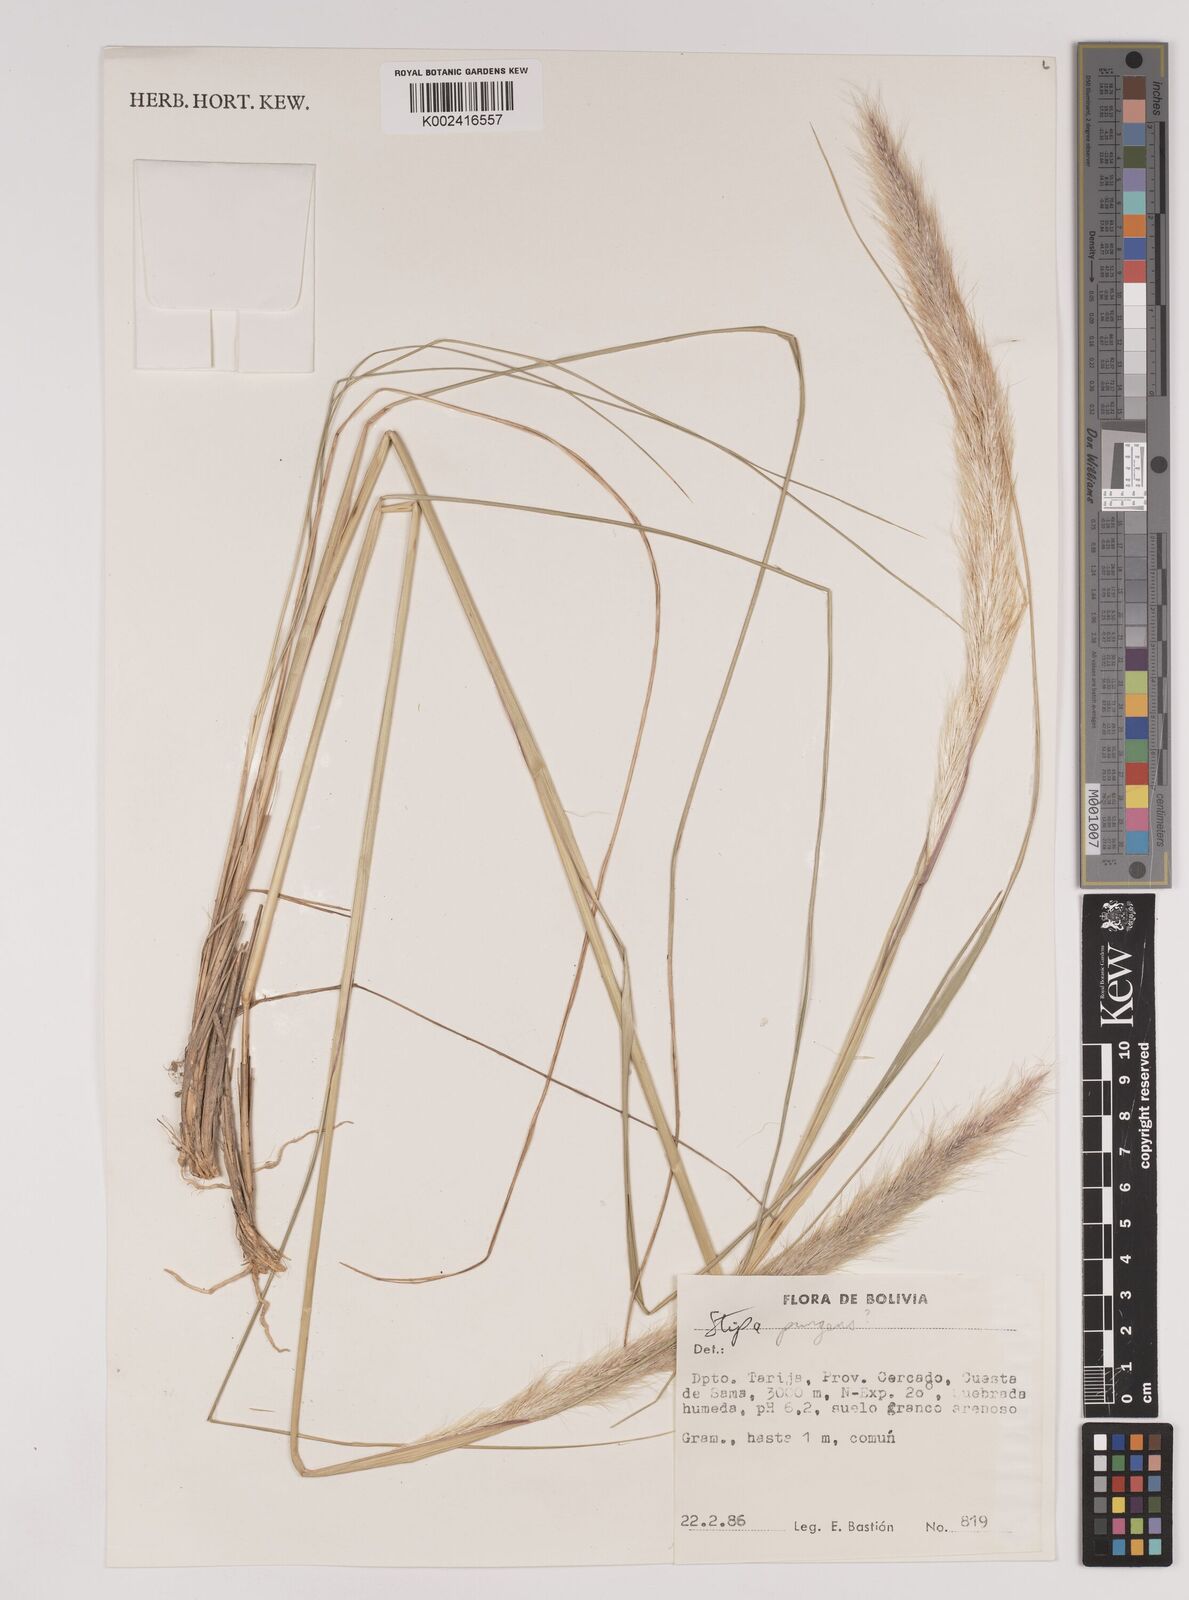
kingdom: Plantae
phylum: Tracheophyta
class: Liliopsida
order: Poales
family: Poaceae
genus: Jarava
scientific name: Jarava pseudoichu
